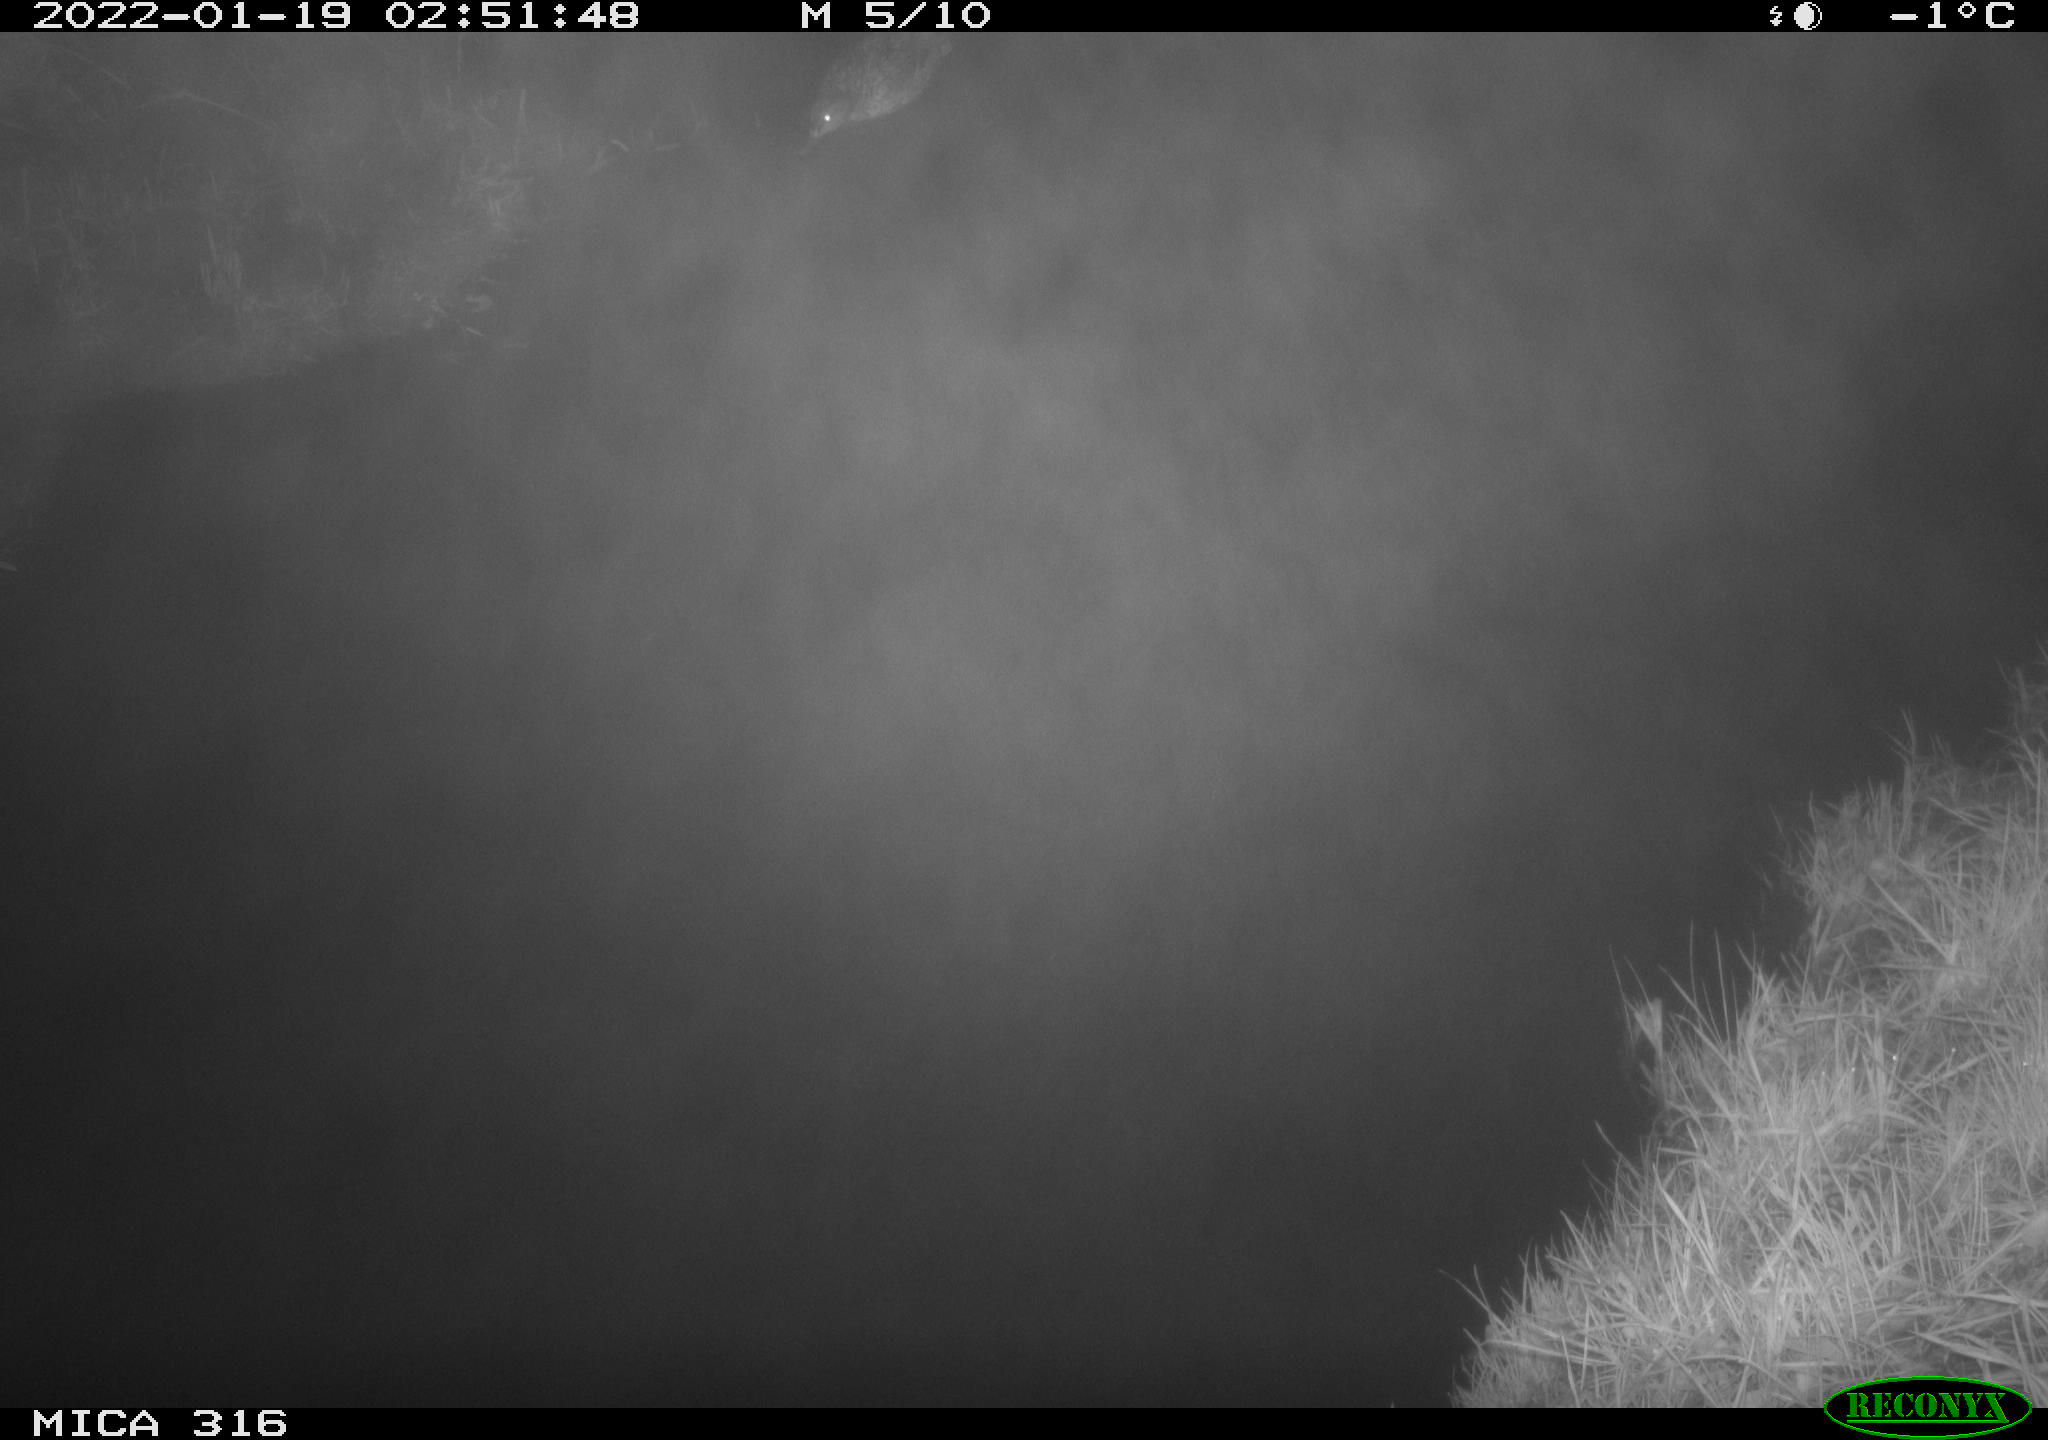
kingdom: Animalia
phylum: Chordata
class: Aves
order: Anseriformes
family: Anatidae
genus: Anas
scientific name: Anas
